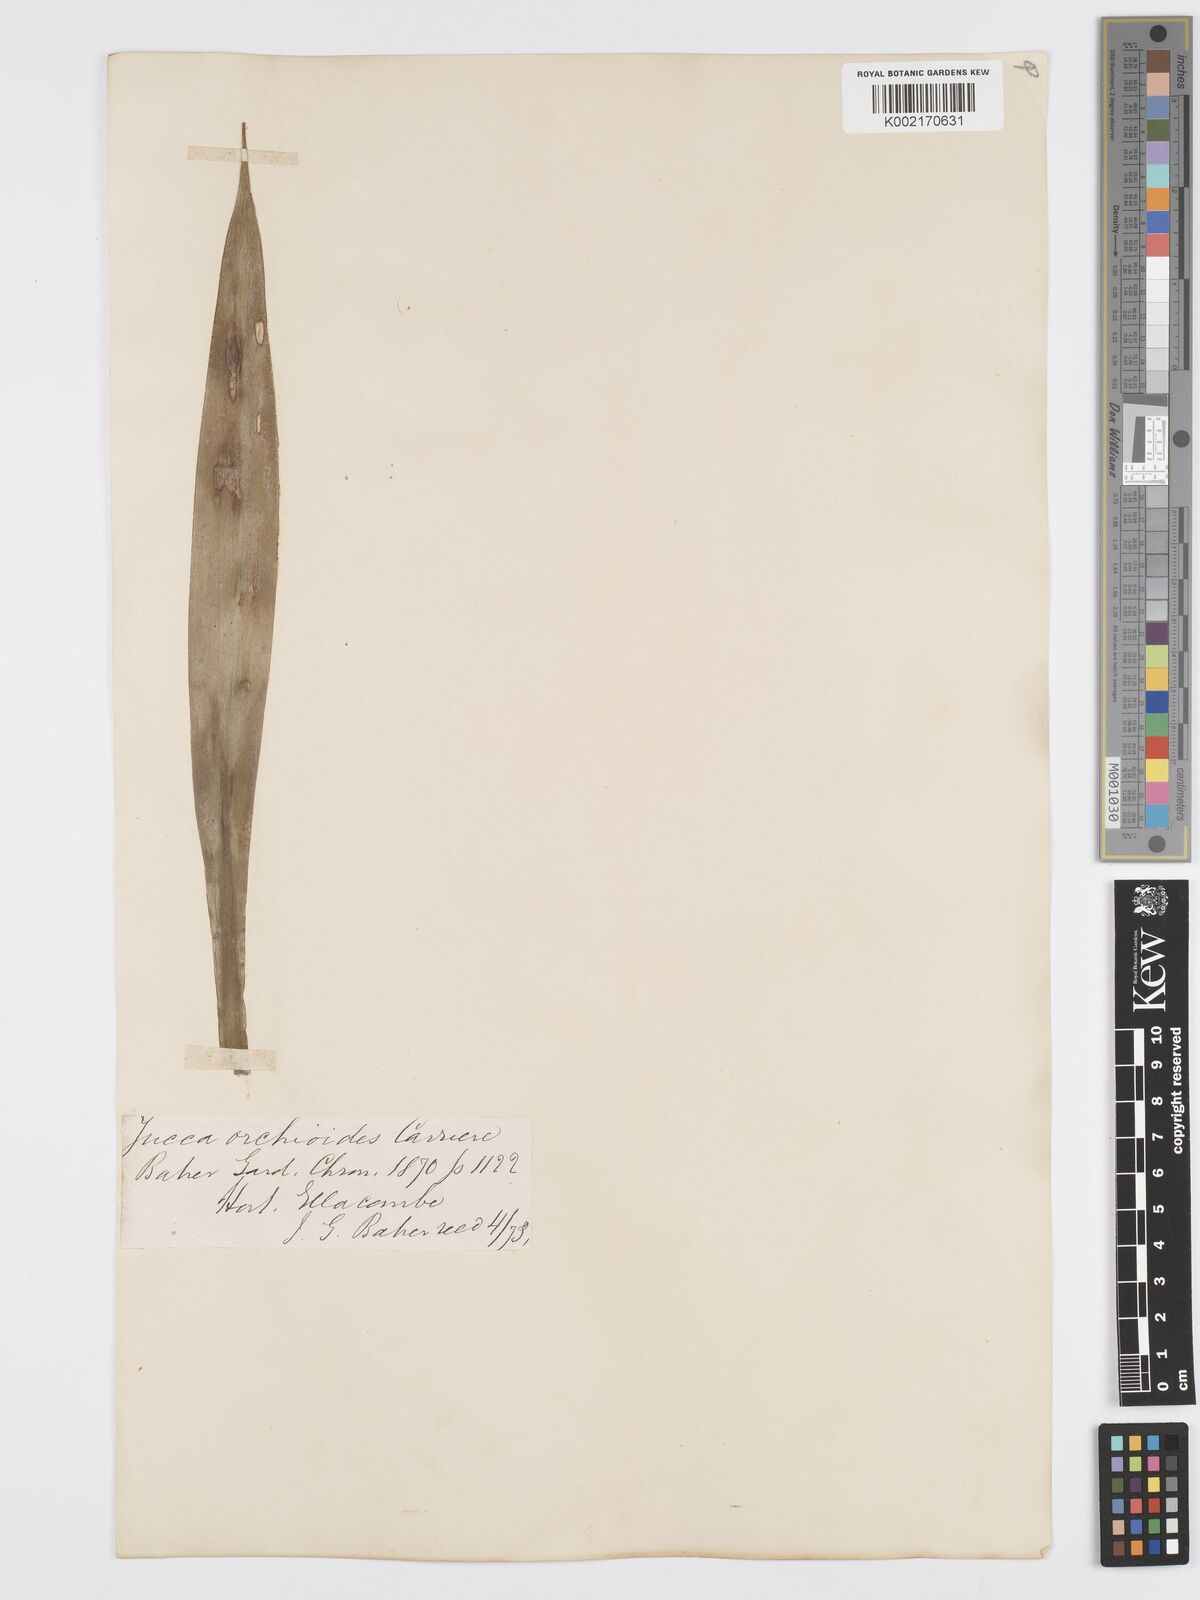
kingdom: Plantae
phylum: Tracheophyta
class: Liliopsida
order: Asparagales
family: Asparagaceae
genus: Yucca
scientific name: Yucca flaccida
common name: Adam's-needle
